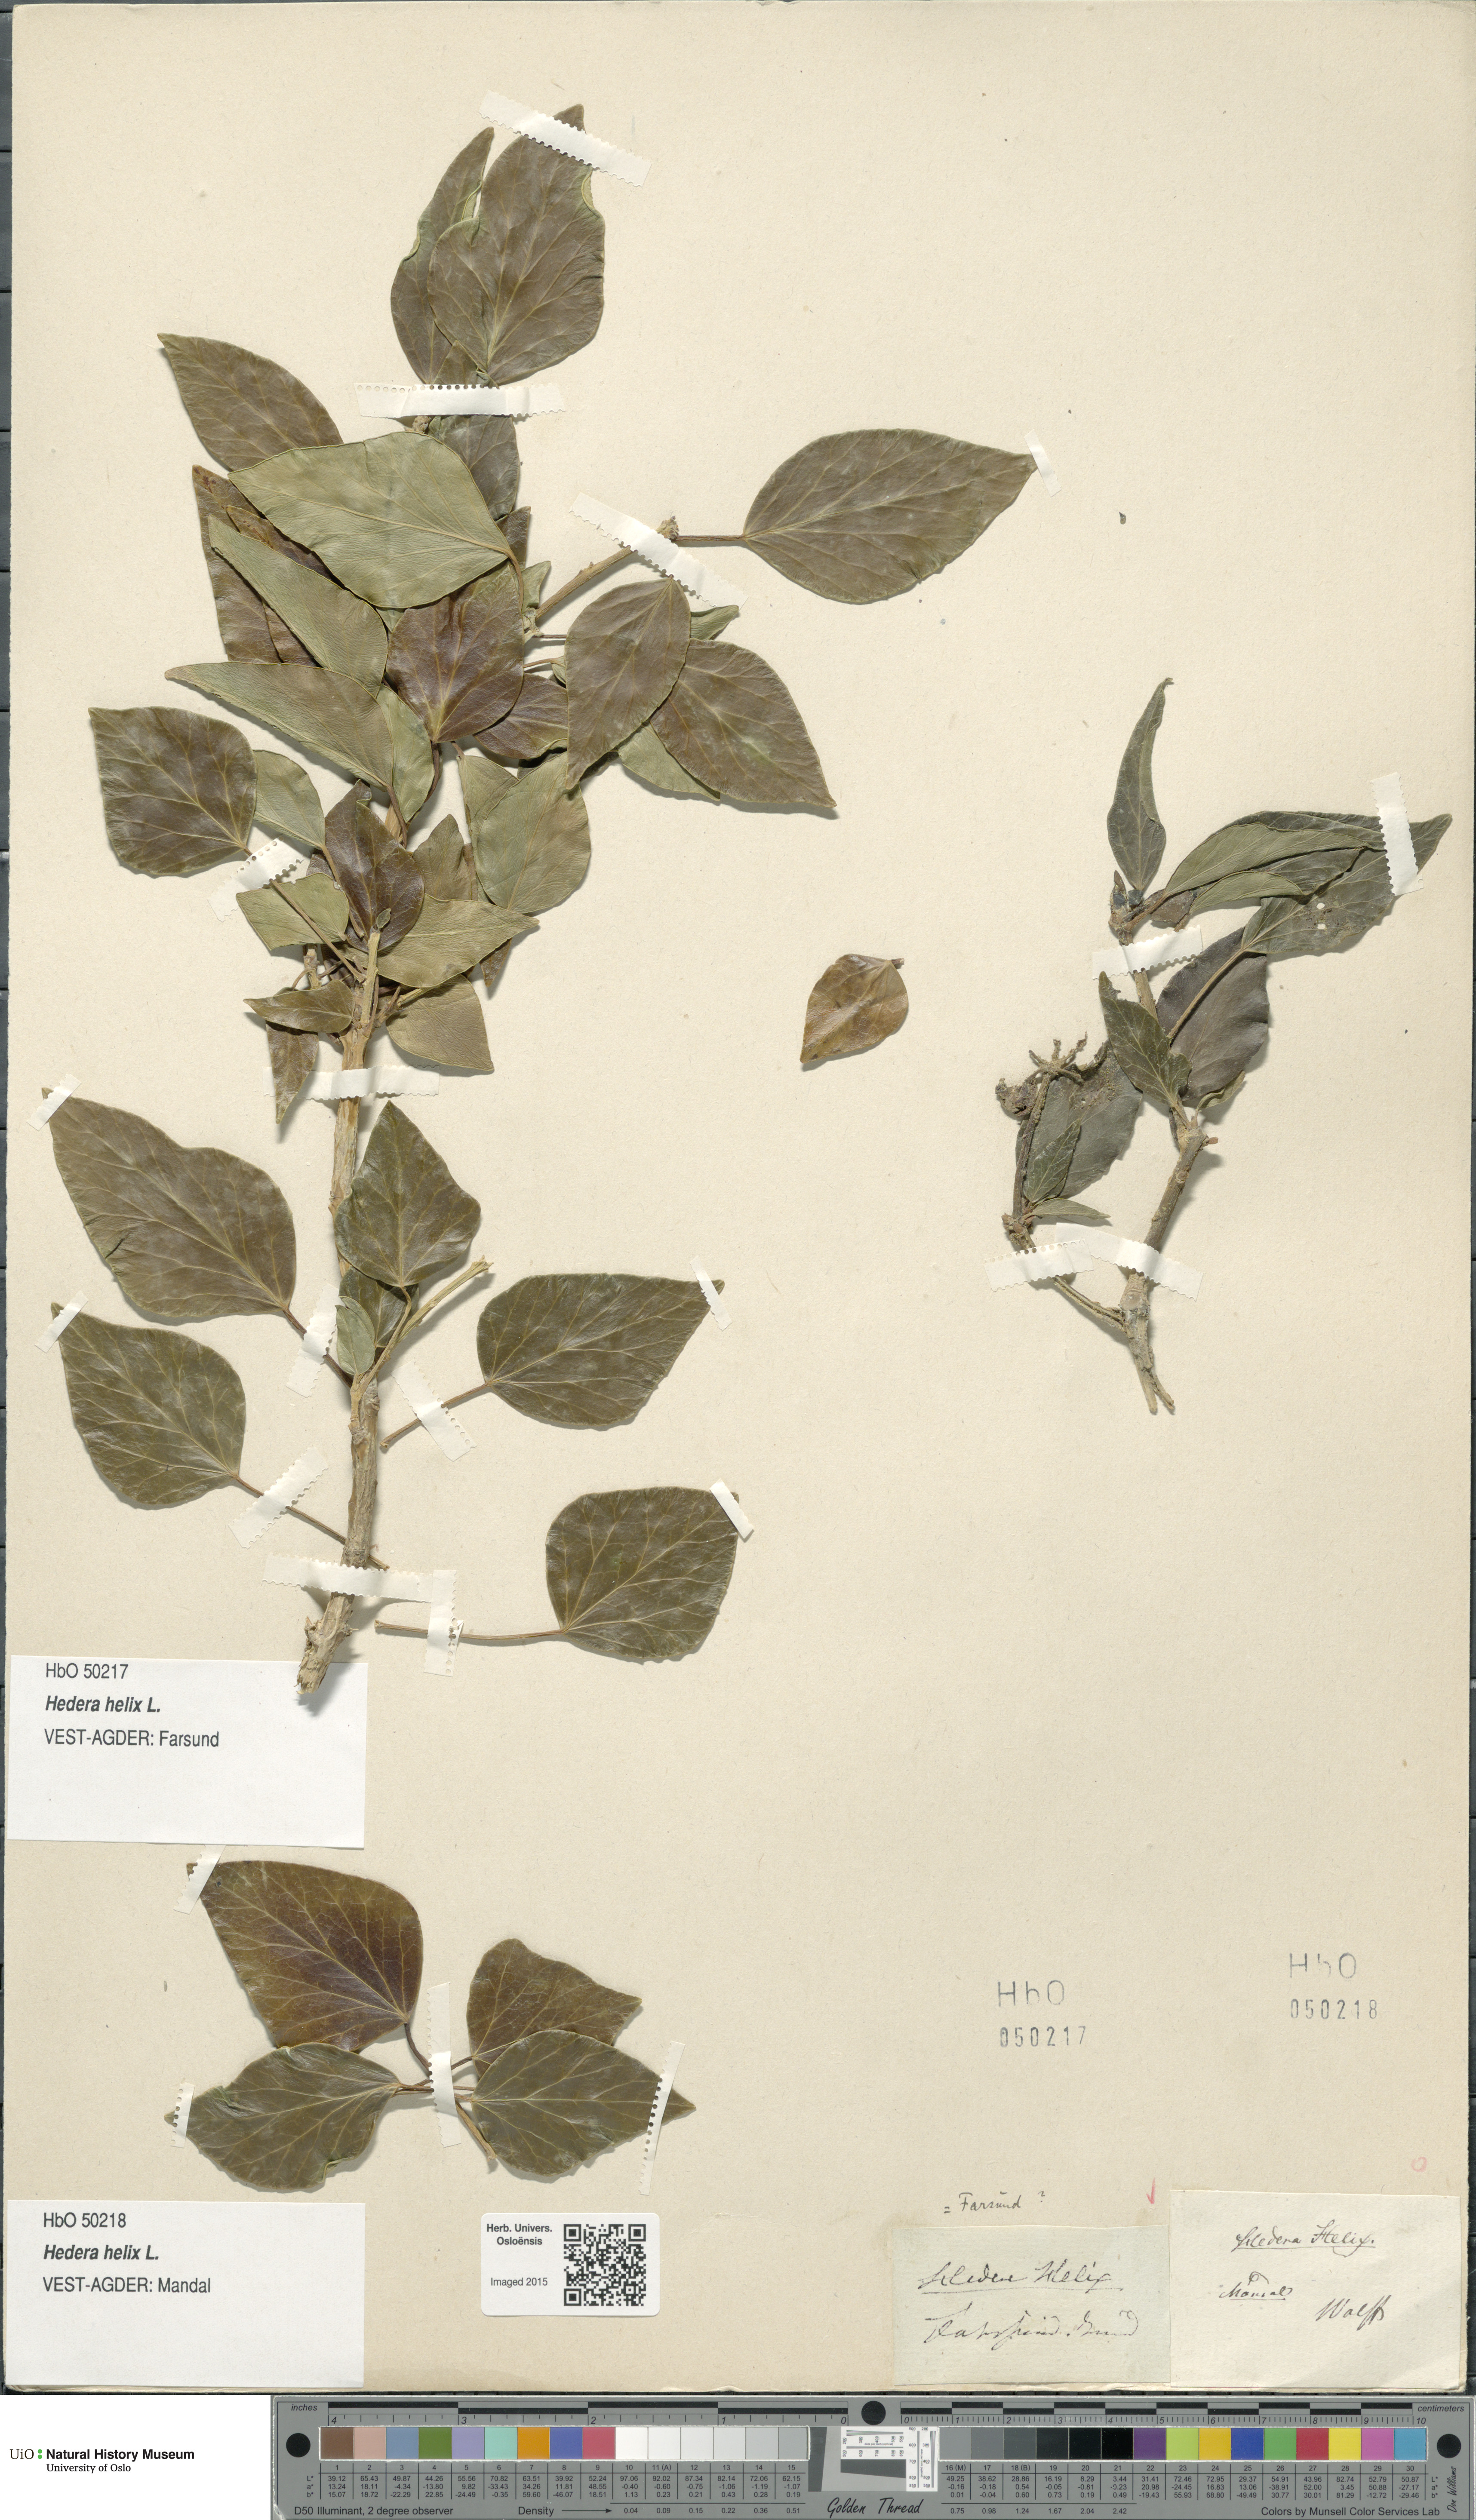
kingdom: Plantae
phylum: Tracheophyta
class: Magnoliopsida
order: Apiales
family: Araliaceae
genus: Hedera
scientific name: Hedera helix
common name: Ivy
